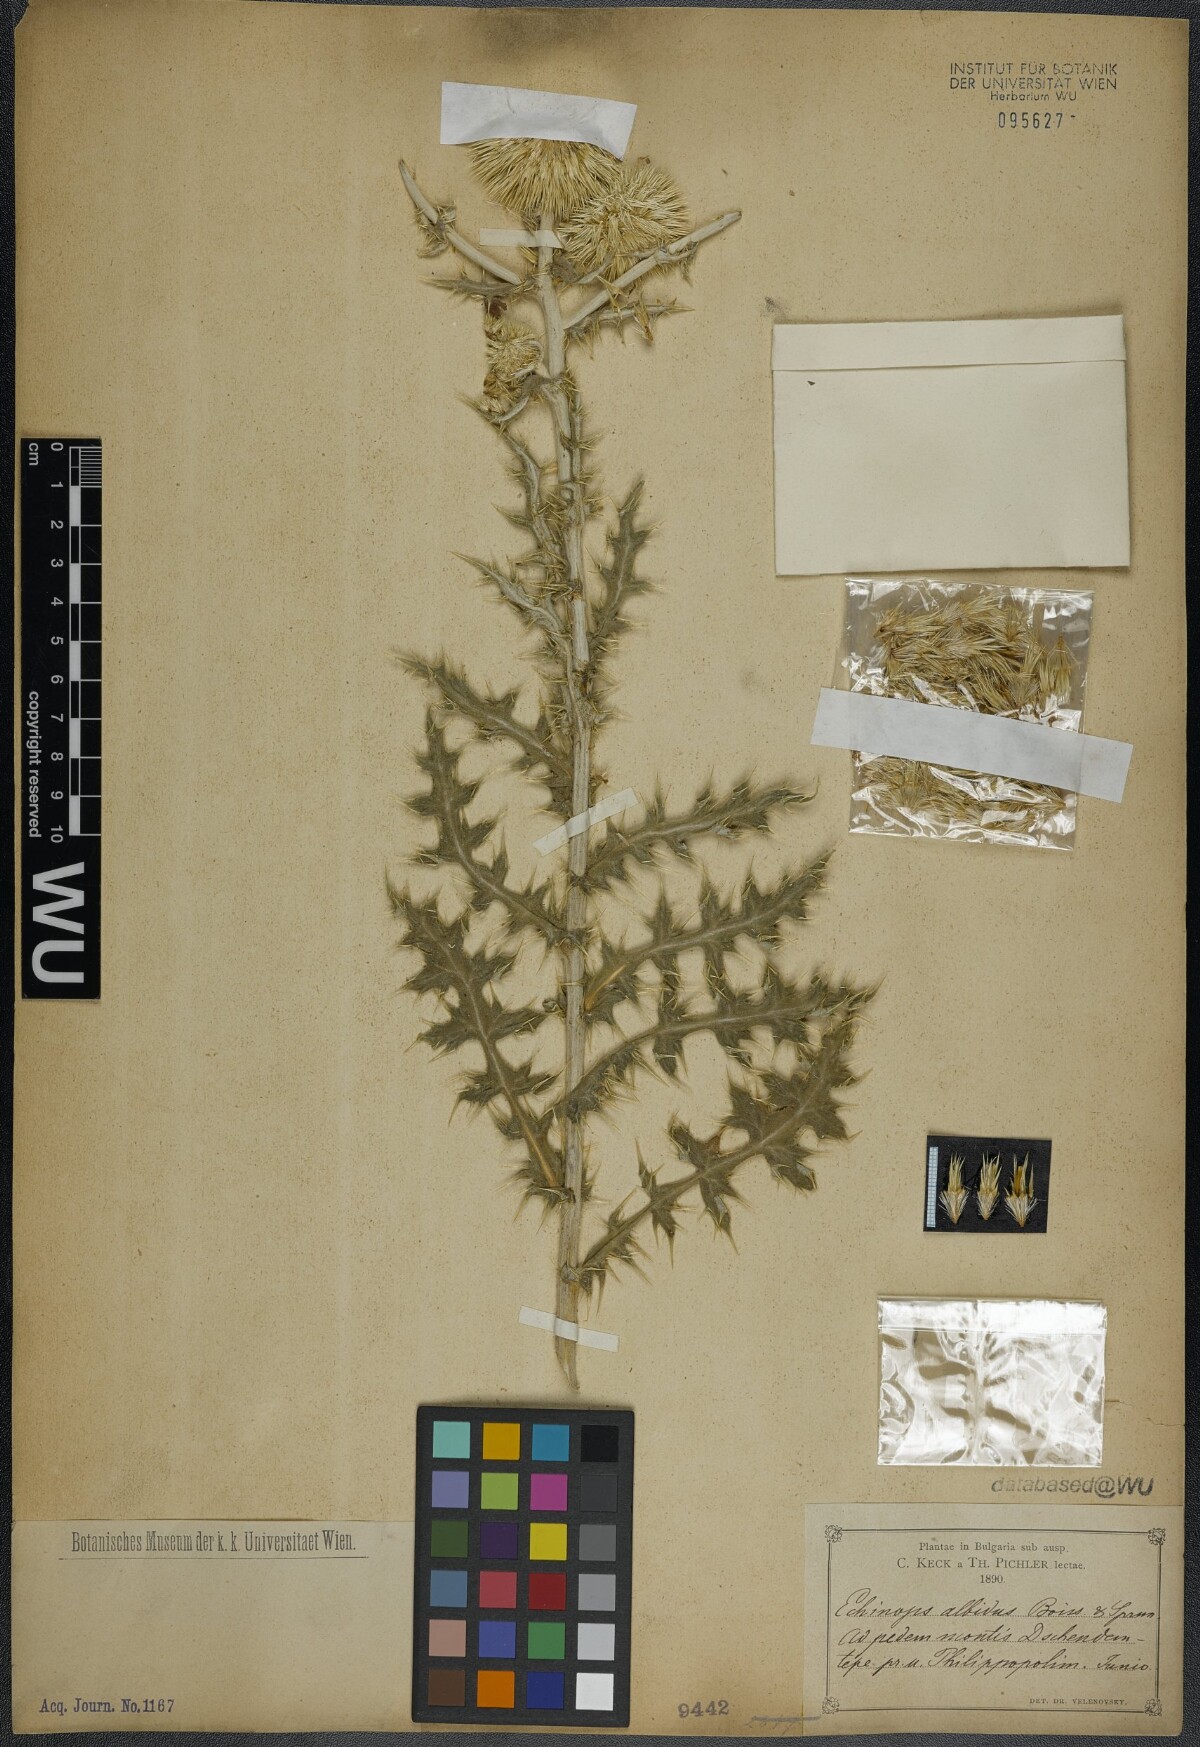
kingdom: Plantae
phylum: Tracheophyta
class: Magnoliopsida
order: Asterales
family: Asteraceae
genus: Echinops
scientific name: Echinops sphaerocephalus
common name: Glandular globe-thistle
